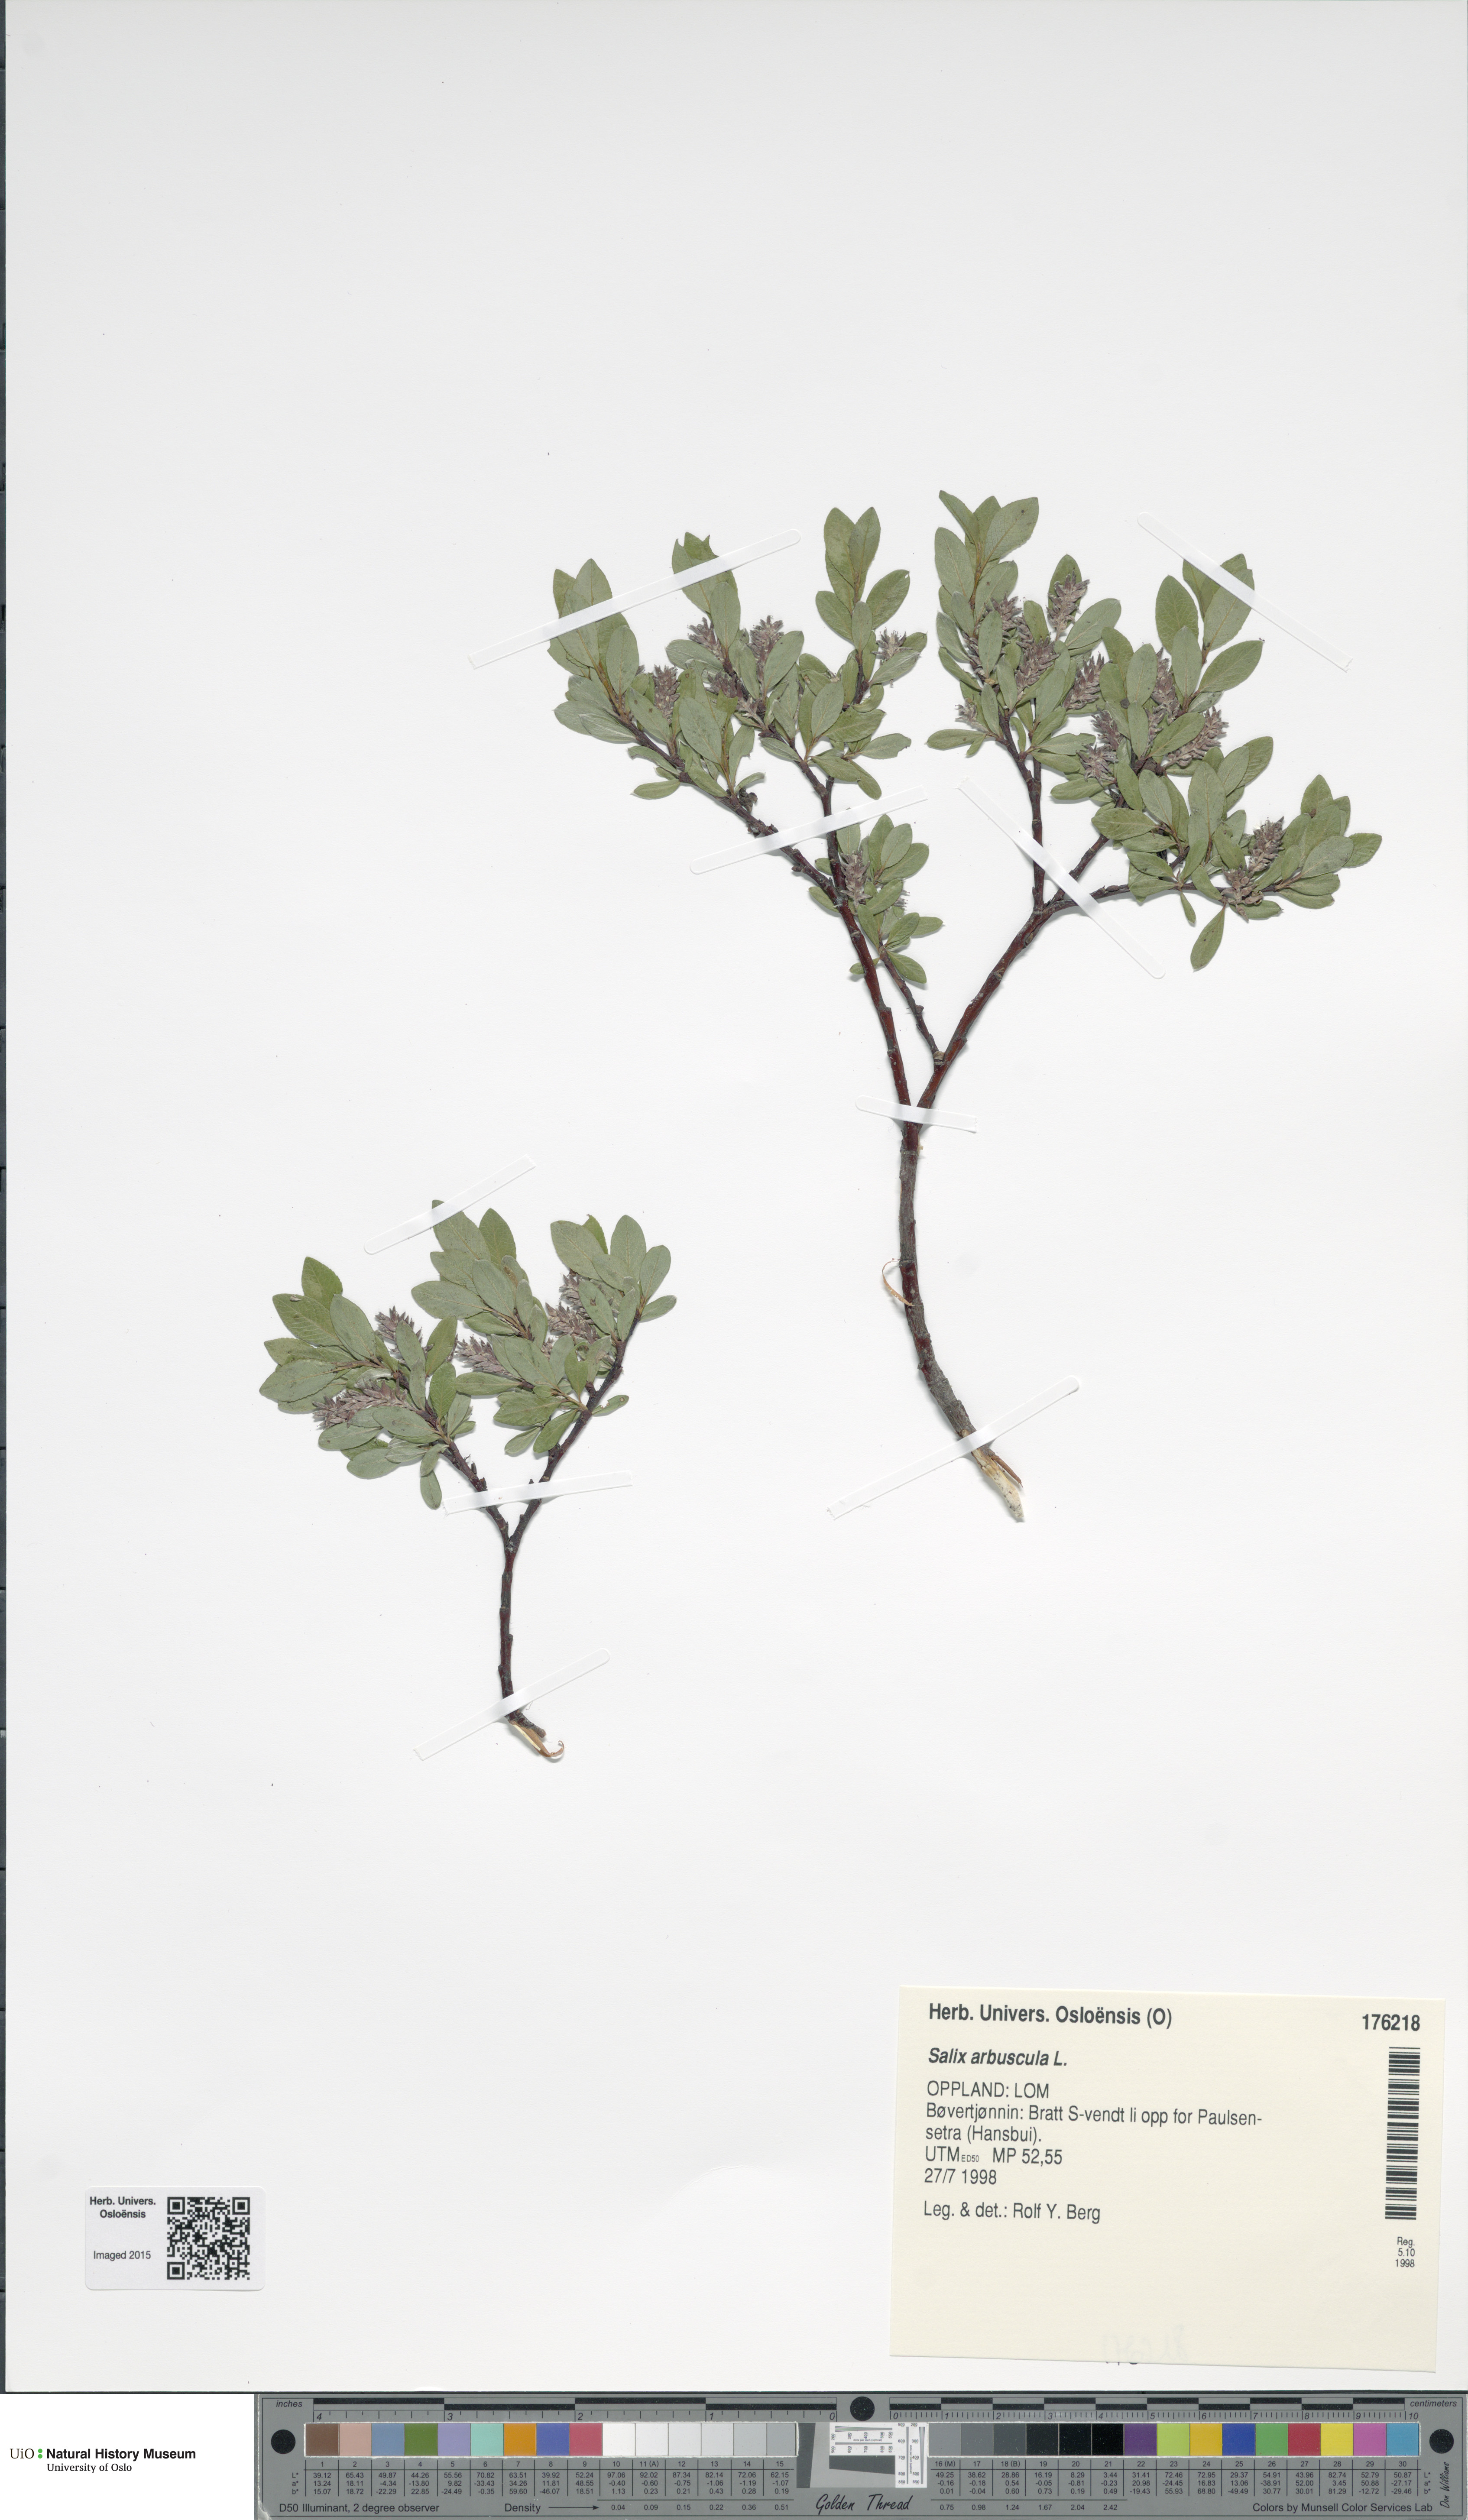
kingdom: Plantae
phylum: Tracheophyta
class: Magnoliopsida
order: Malpighiales
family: Salicaceae
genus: Salix
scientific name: Salix arbuscula
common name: Mountain willow
